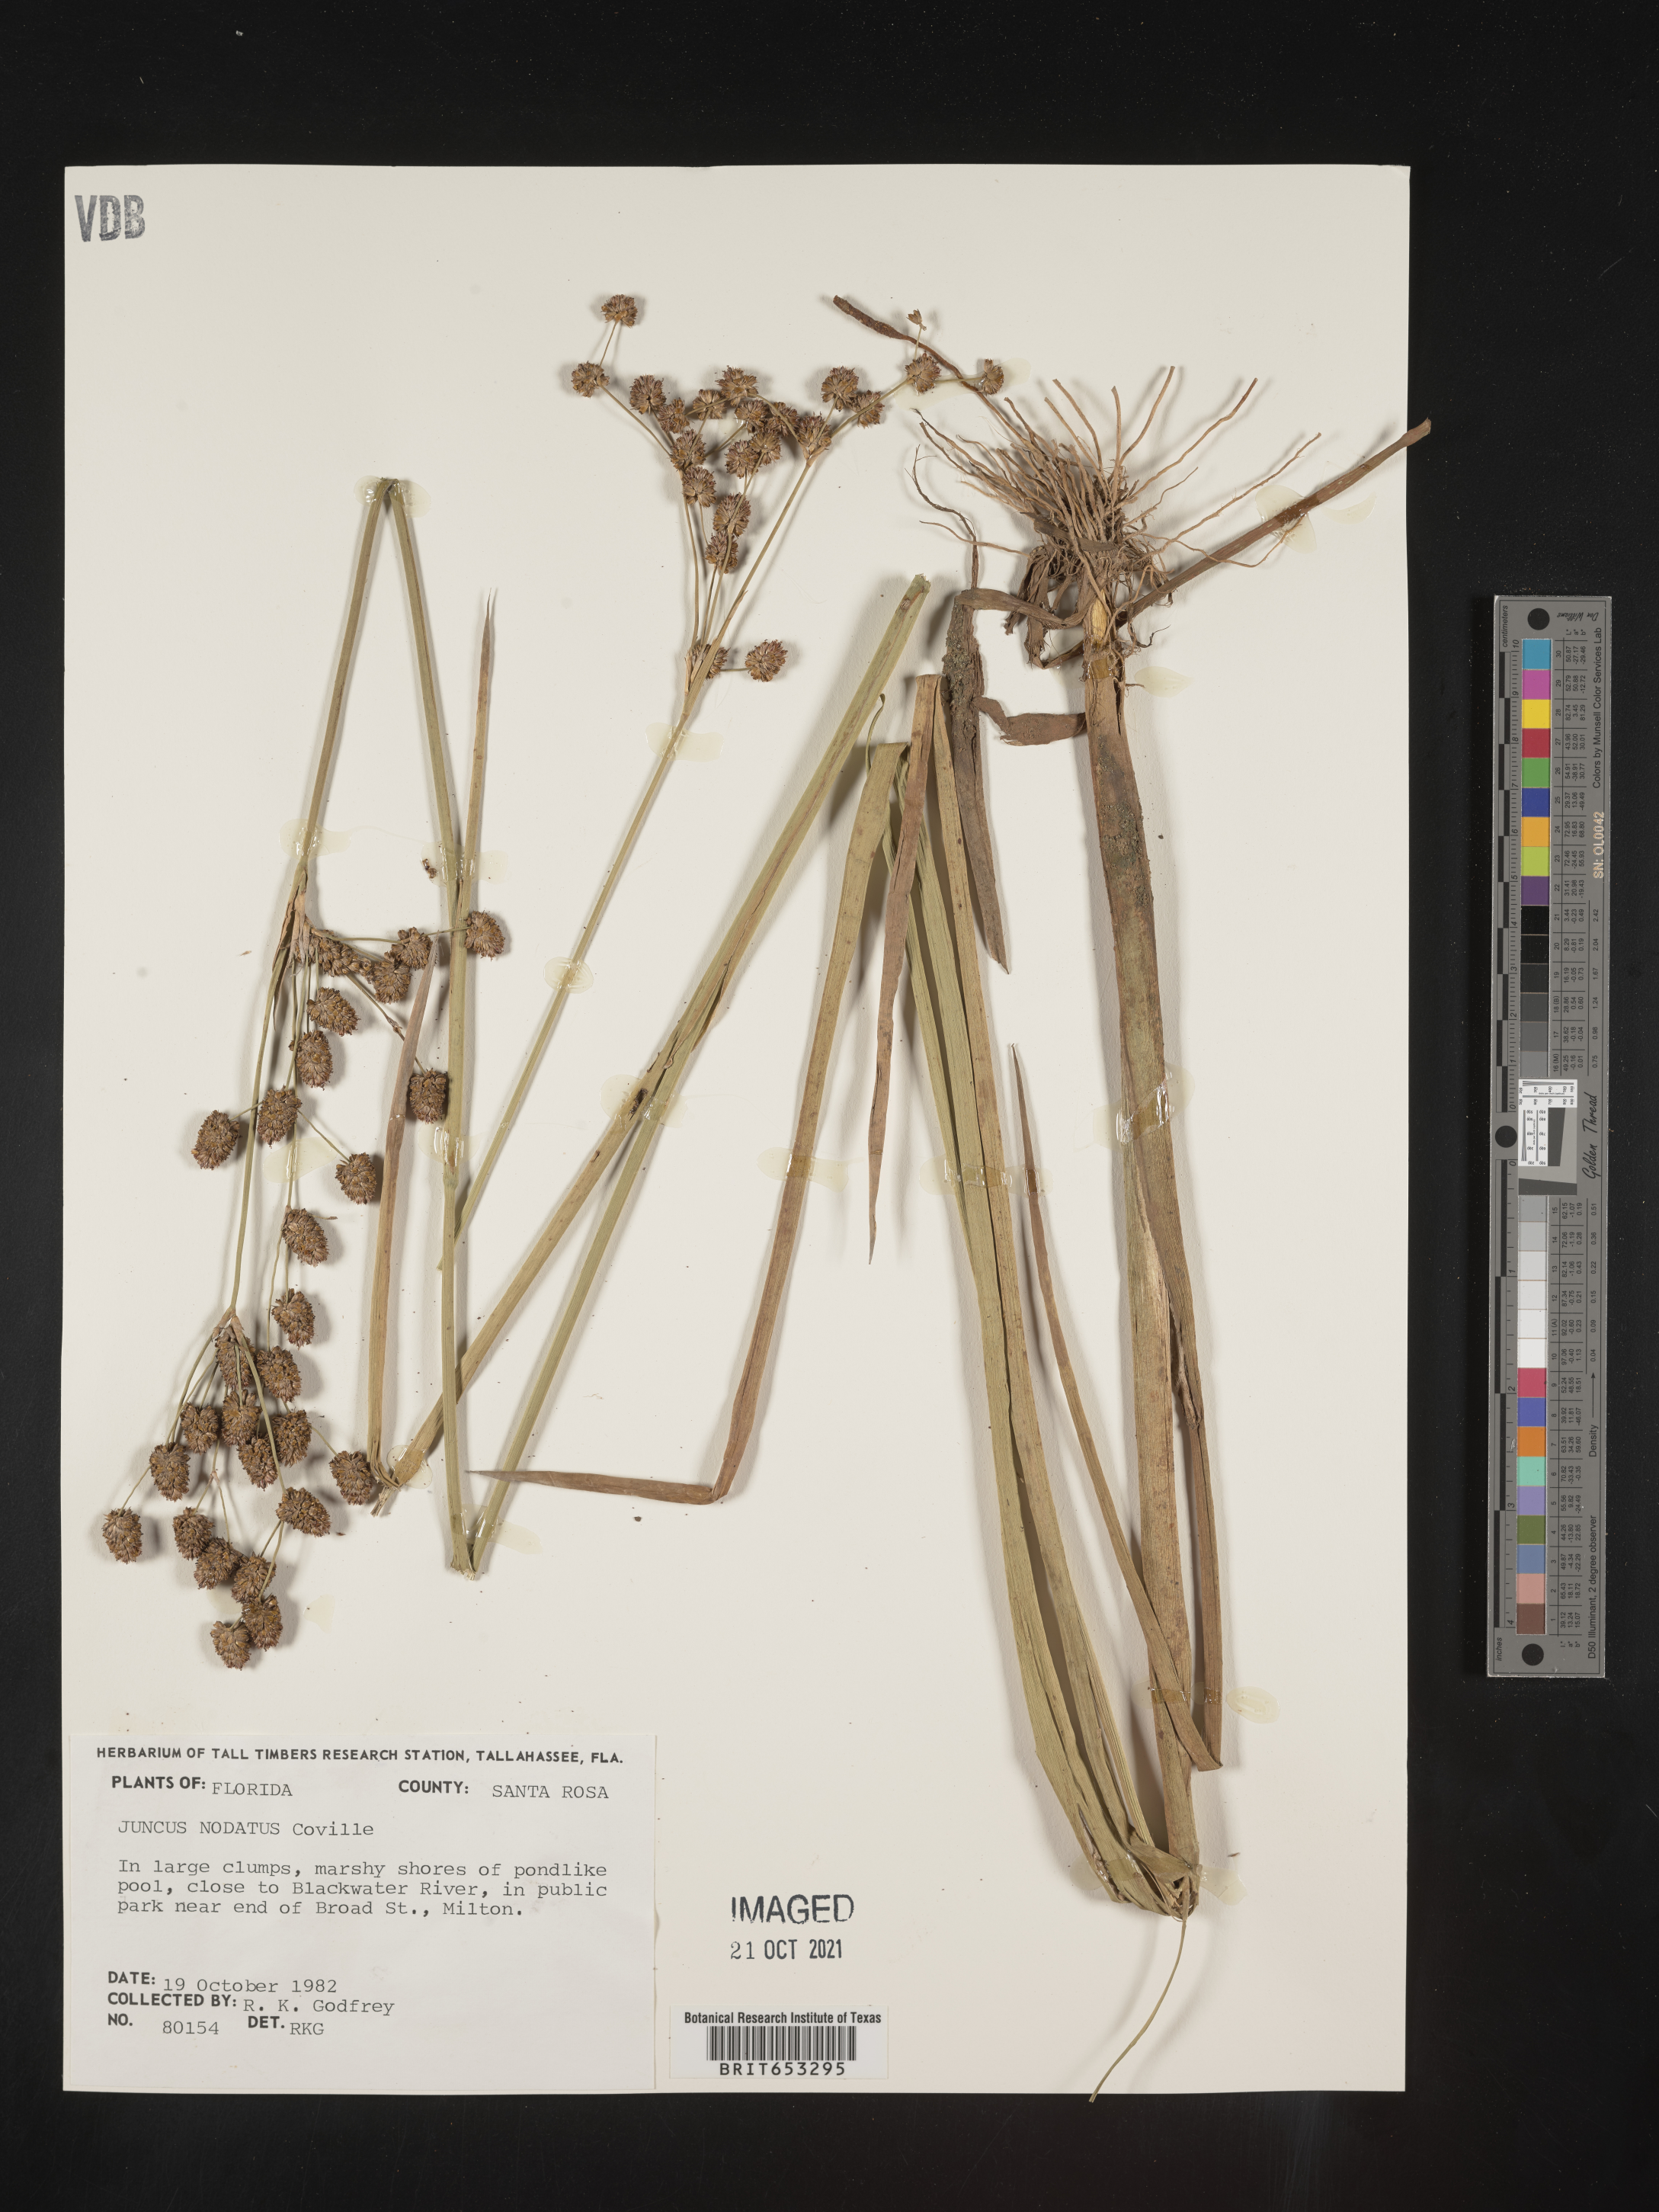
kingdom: Plantae
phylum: Tracheophyta
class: Liliopsida
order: Poales
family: Juncaceae
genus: Juncus
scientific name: Juncus nodatus
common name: Stout rush
